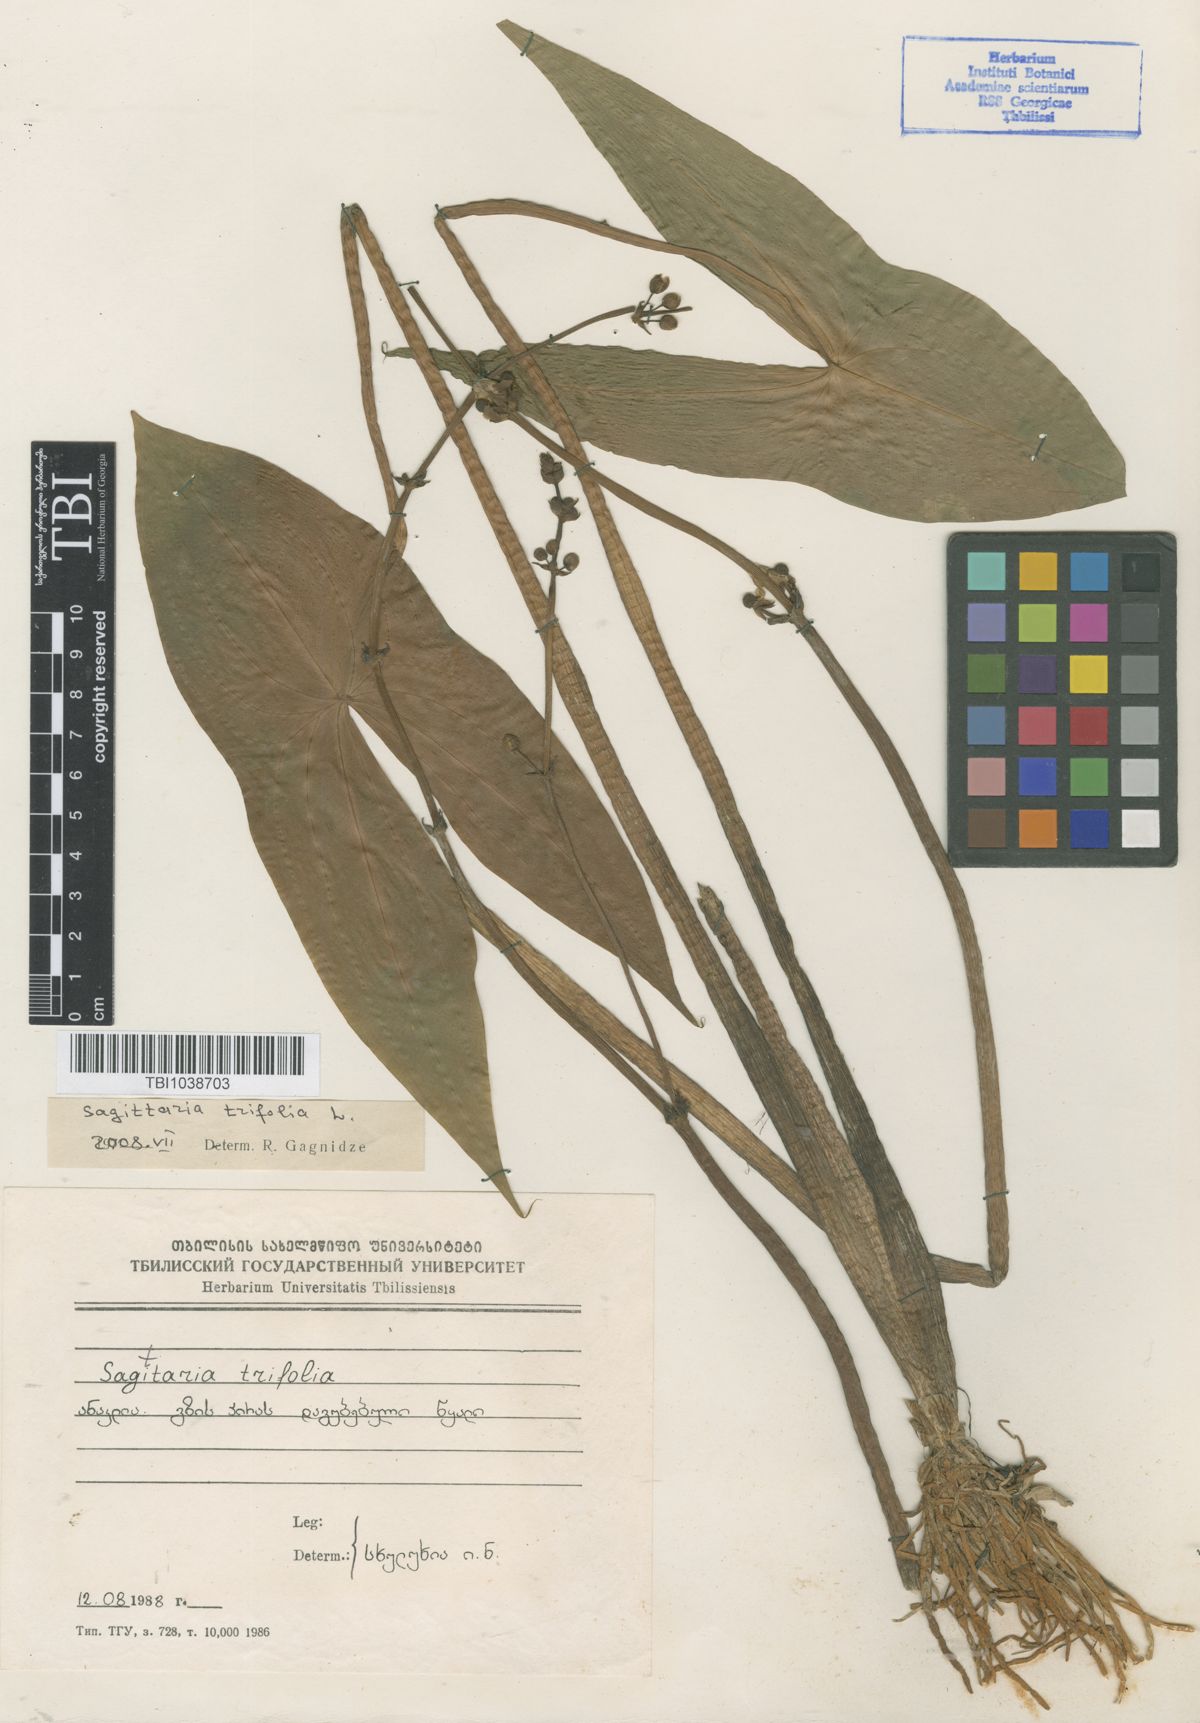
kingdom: Plantae
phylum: Tracheophyta
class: Liliopsida
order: Alismatales
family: Alismataceae
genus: Sagittaria
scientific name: Sagittaria trifolia
